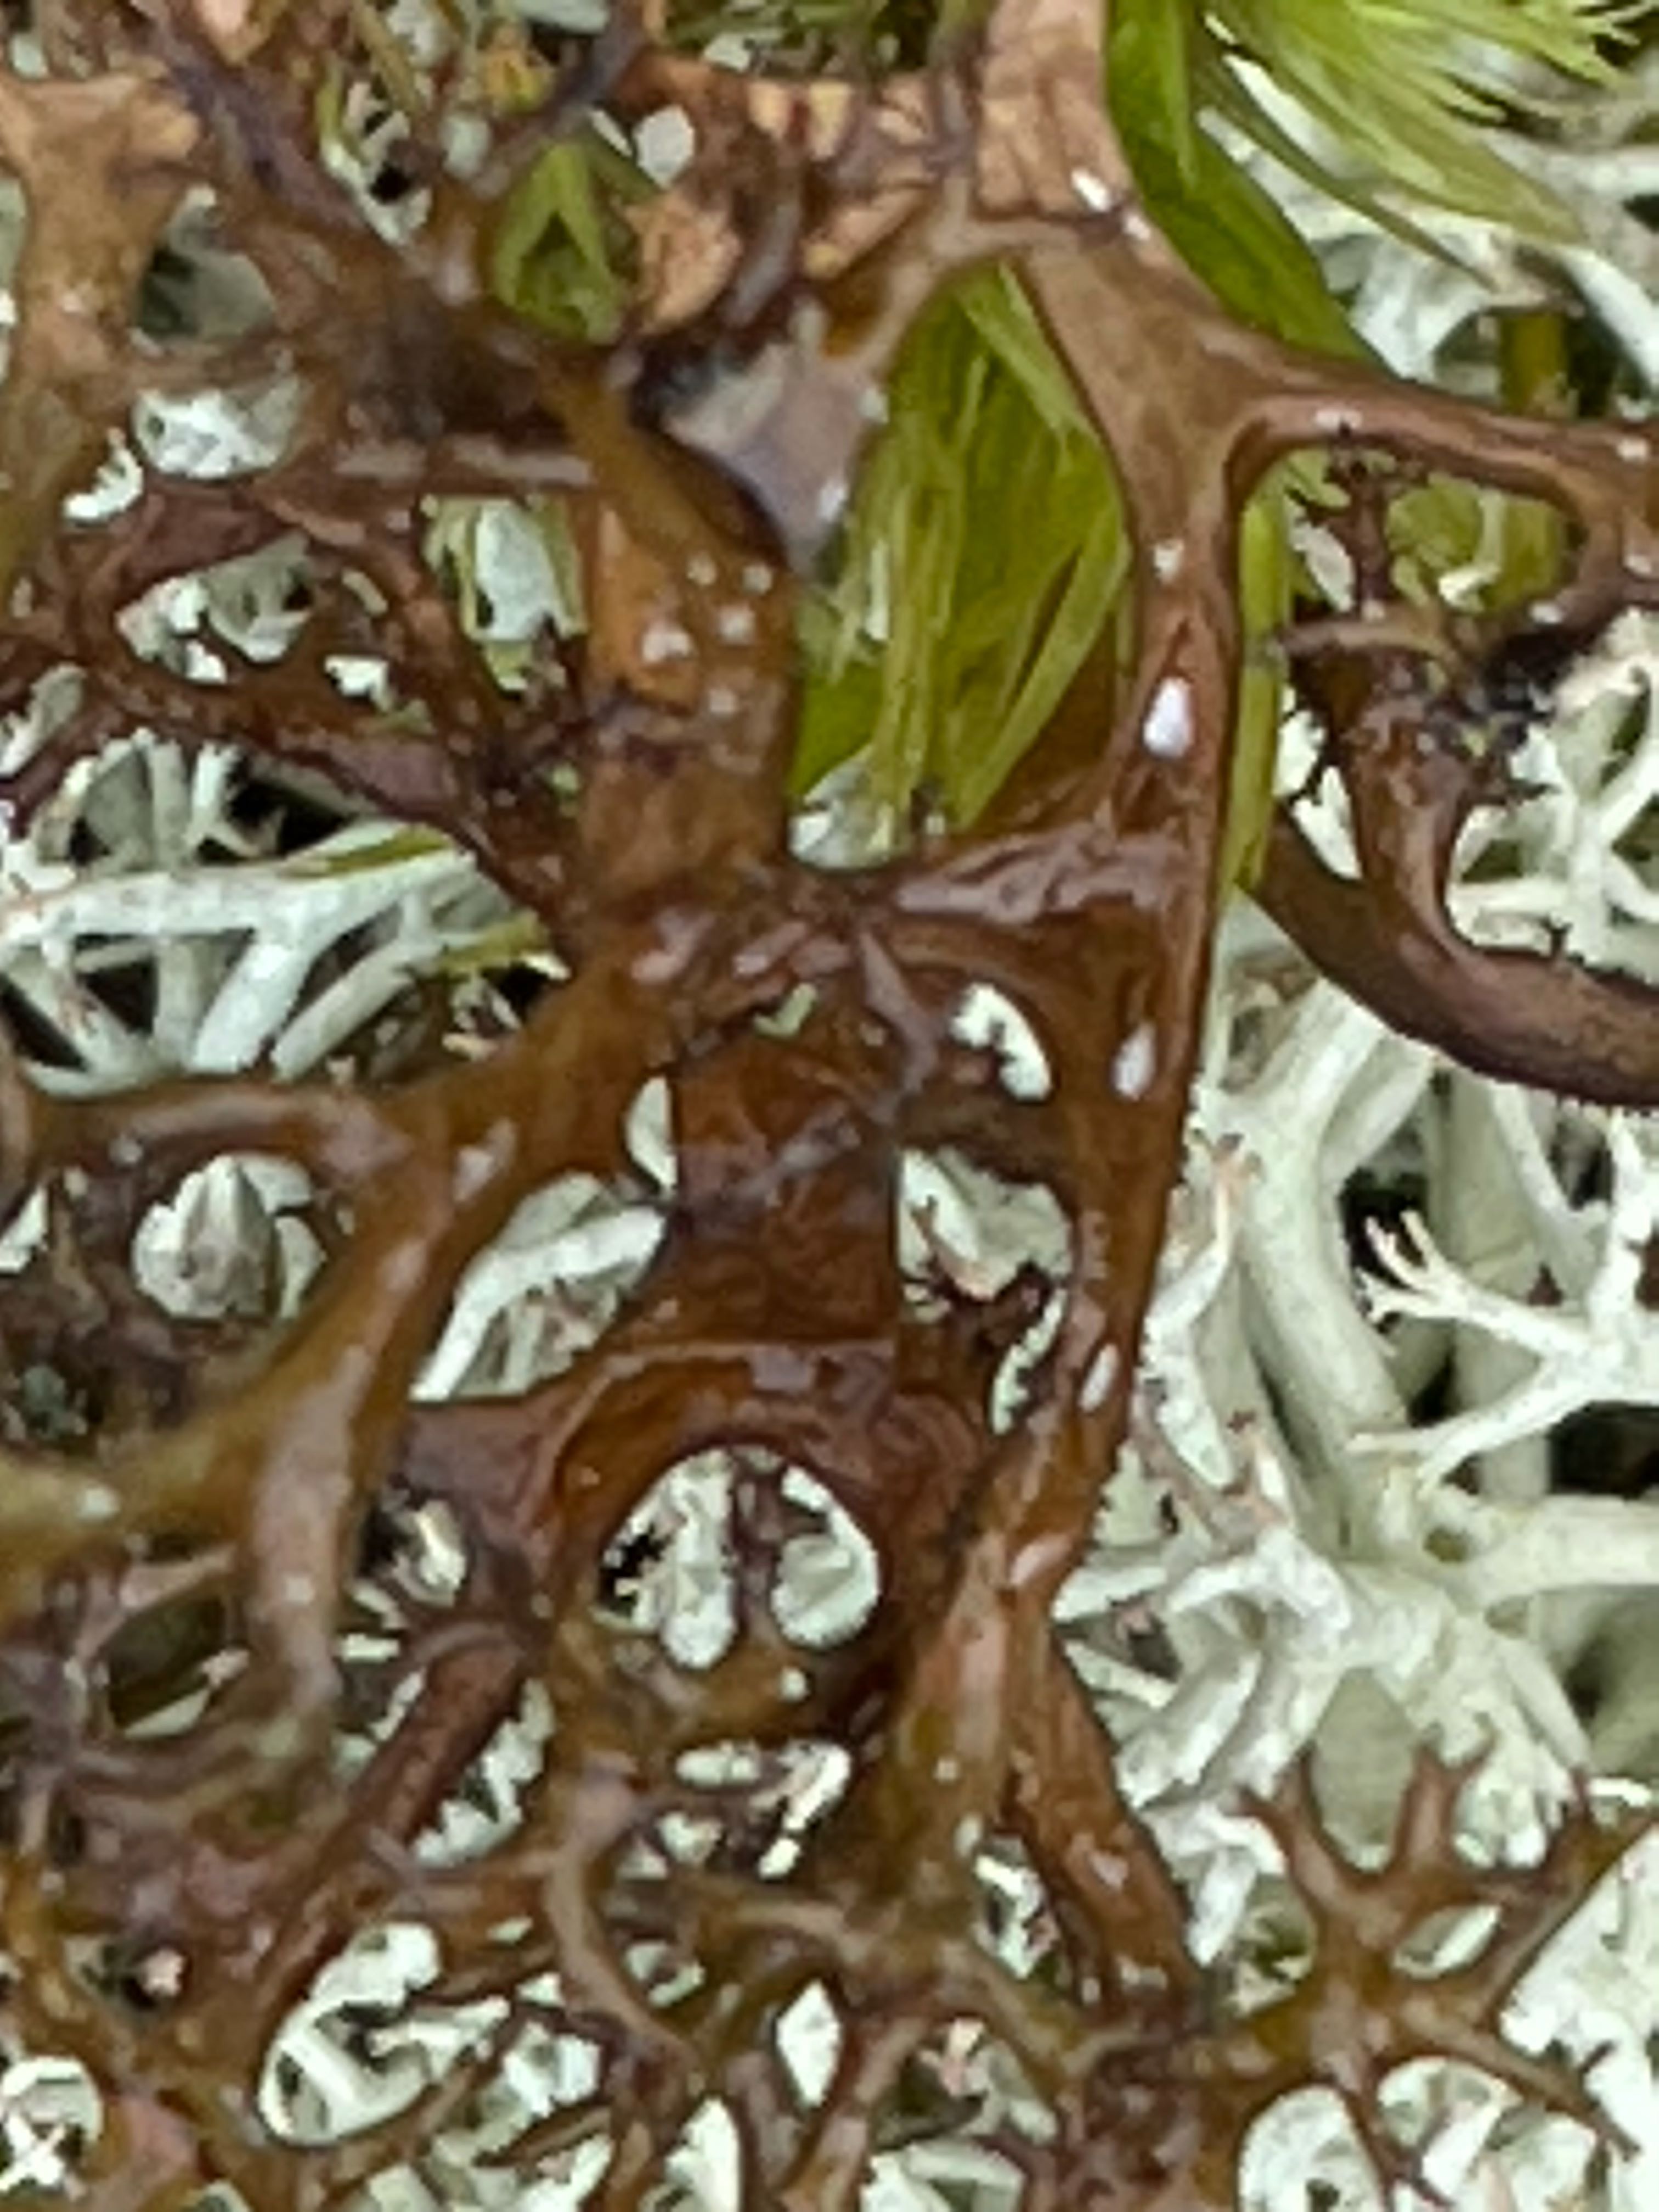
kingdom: Fungi
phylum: Ascomycota
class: Lecanoromycetes
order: Lecanorales
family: Parmeliaceae
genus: Cetraria
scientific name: Cetraria aculeata
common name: grubet tjørnelav
